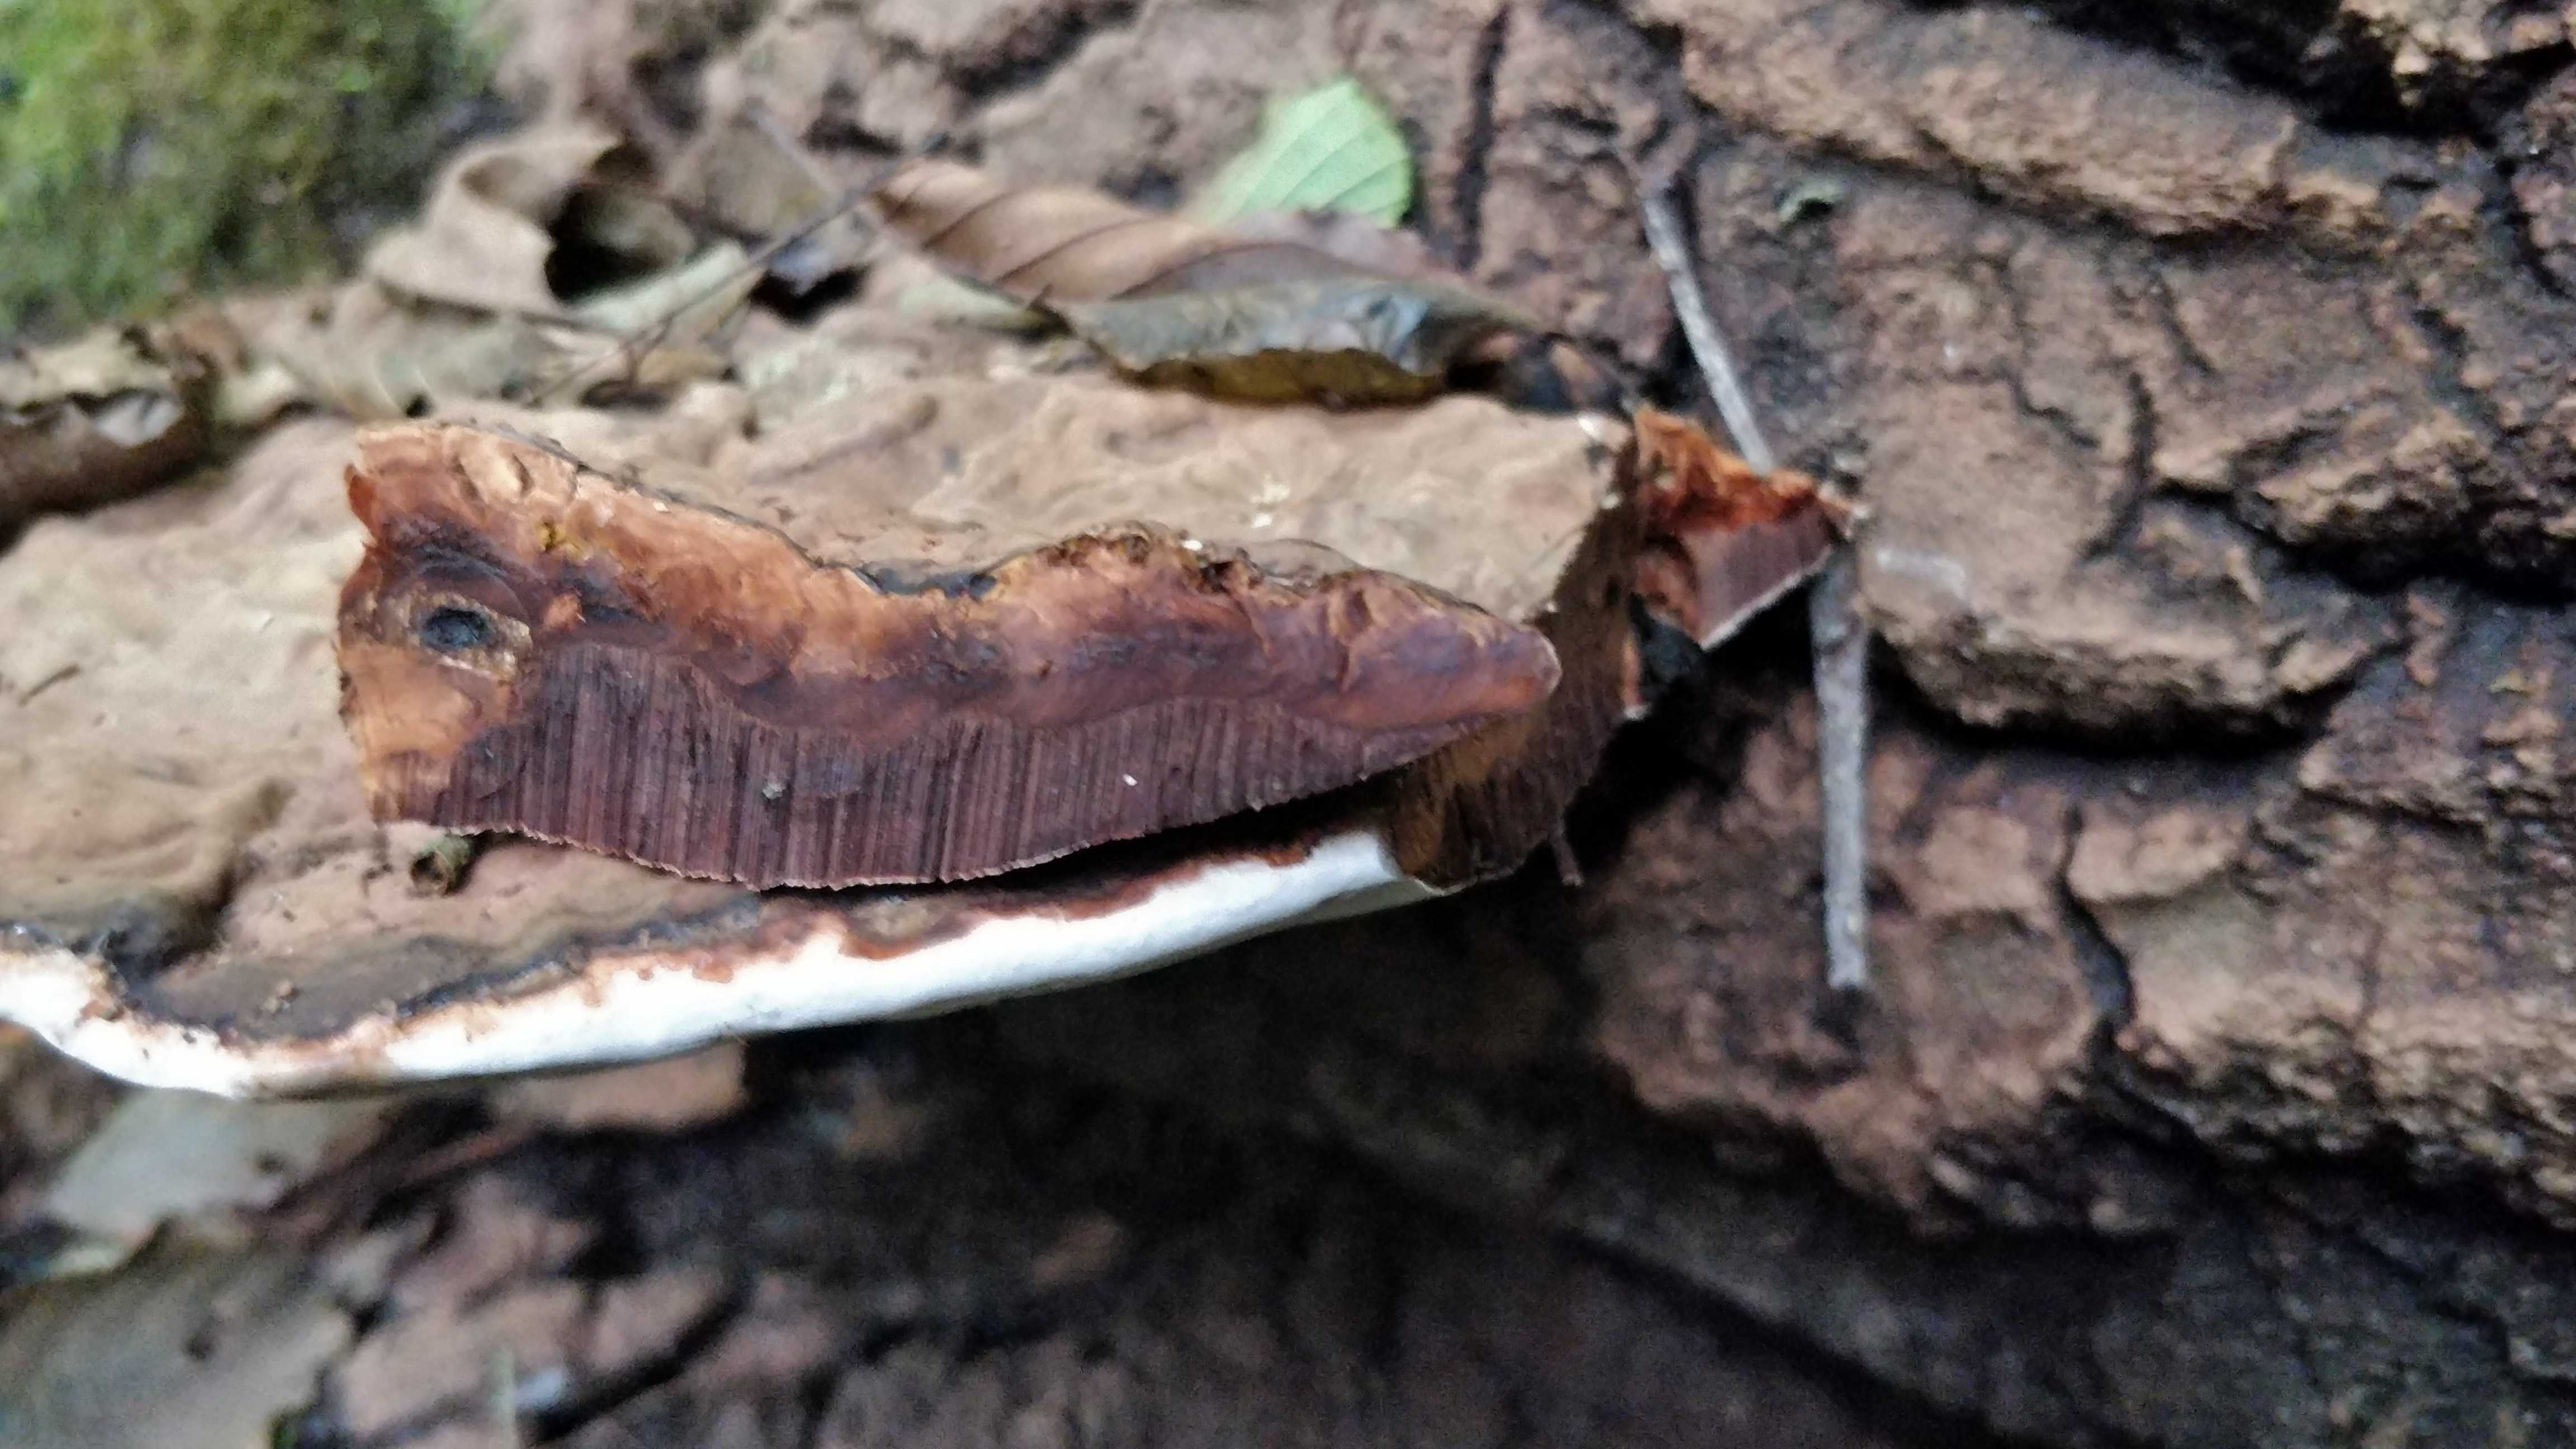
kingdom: Fungi
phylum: Basidiomycota
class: Agaricomycetes
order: Polyporales
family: Polyporaceae
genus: Ganoderma
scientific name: Ganoderma applanatum
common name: flad lakporesvamp
